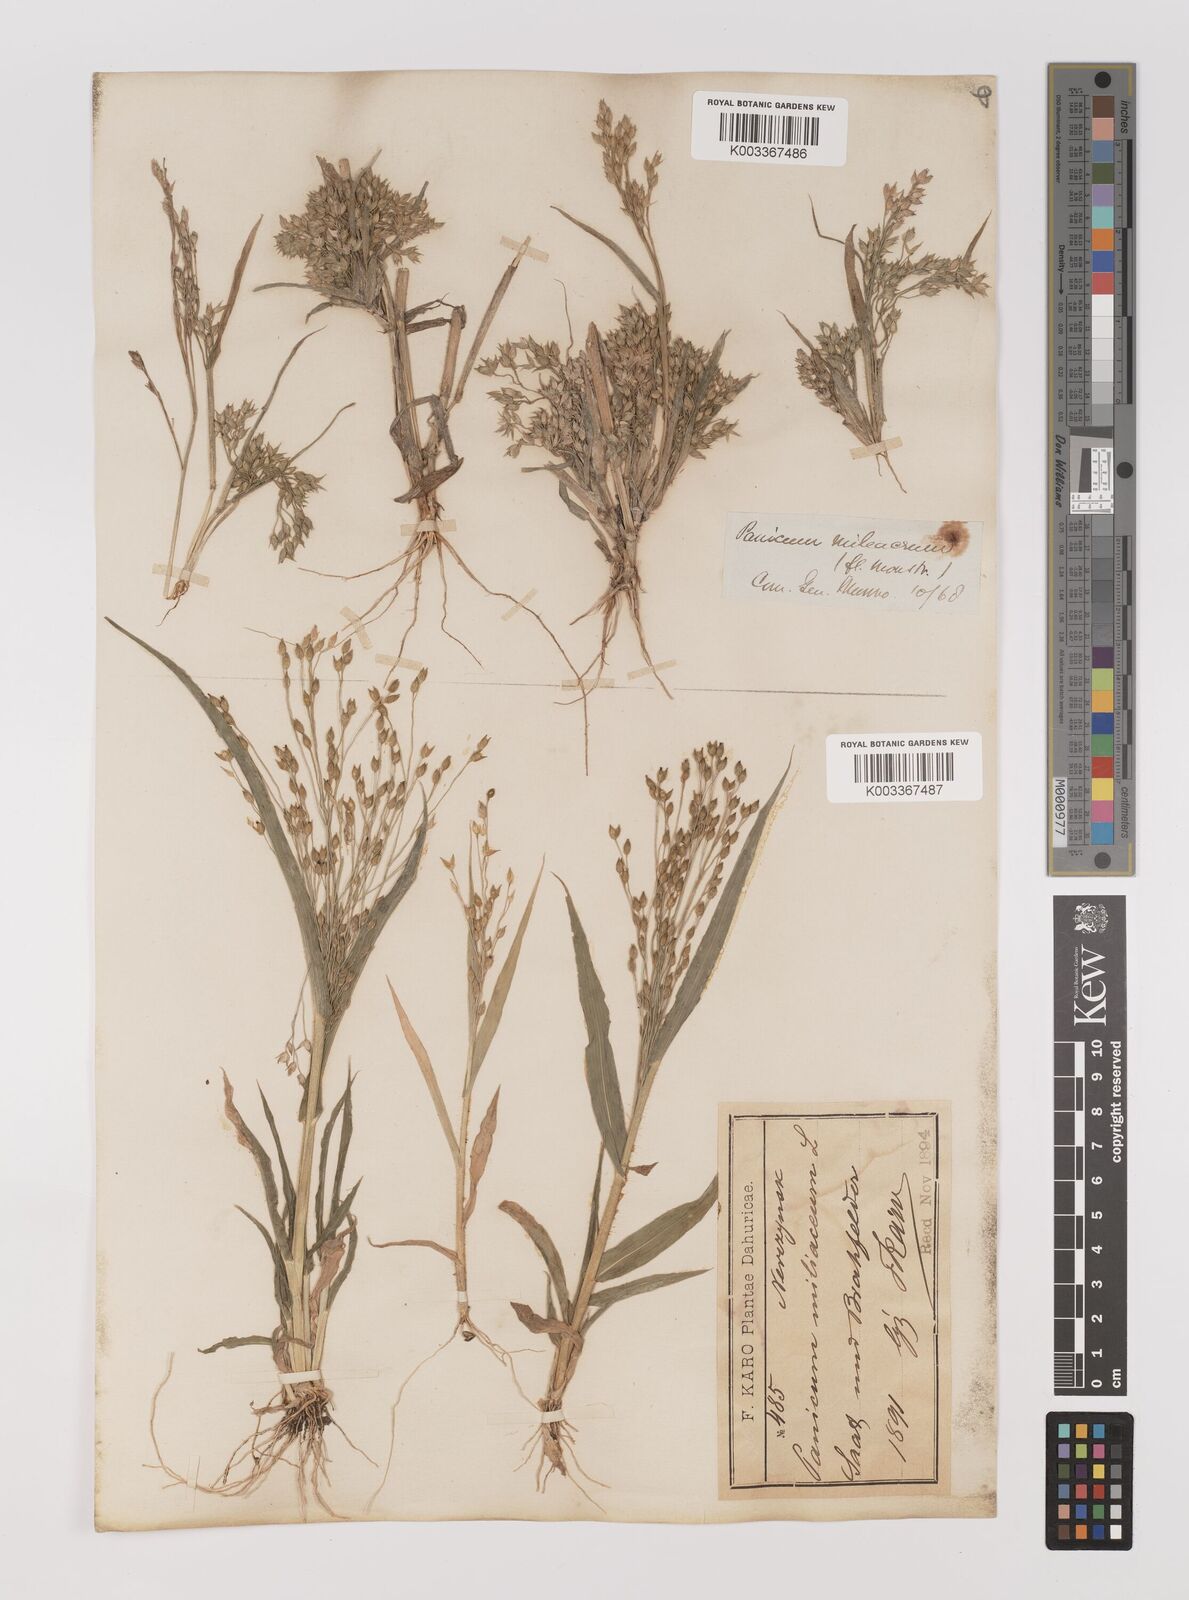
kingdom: Plantae
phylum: Tracheophyta
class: Liliopsida
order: Poales
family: Poaceae
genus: Panicum
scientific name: Panicum miliaceum
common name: Common millet
